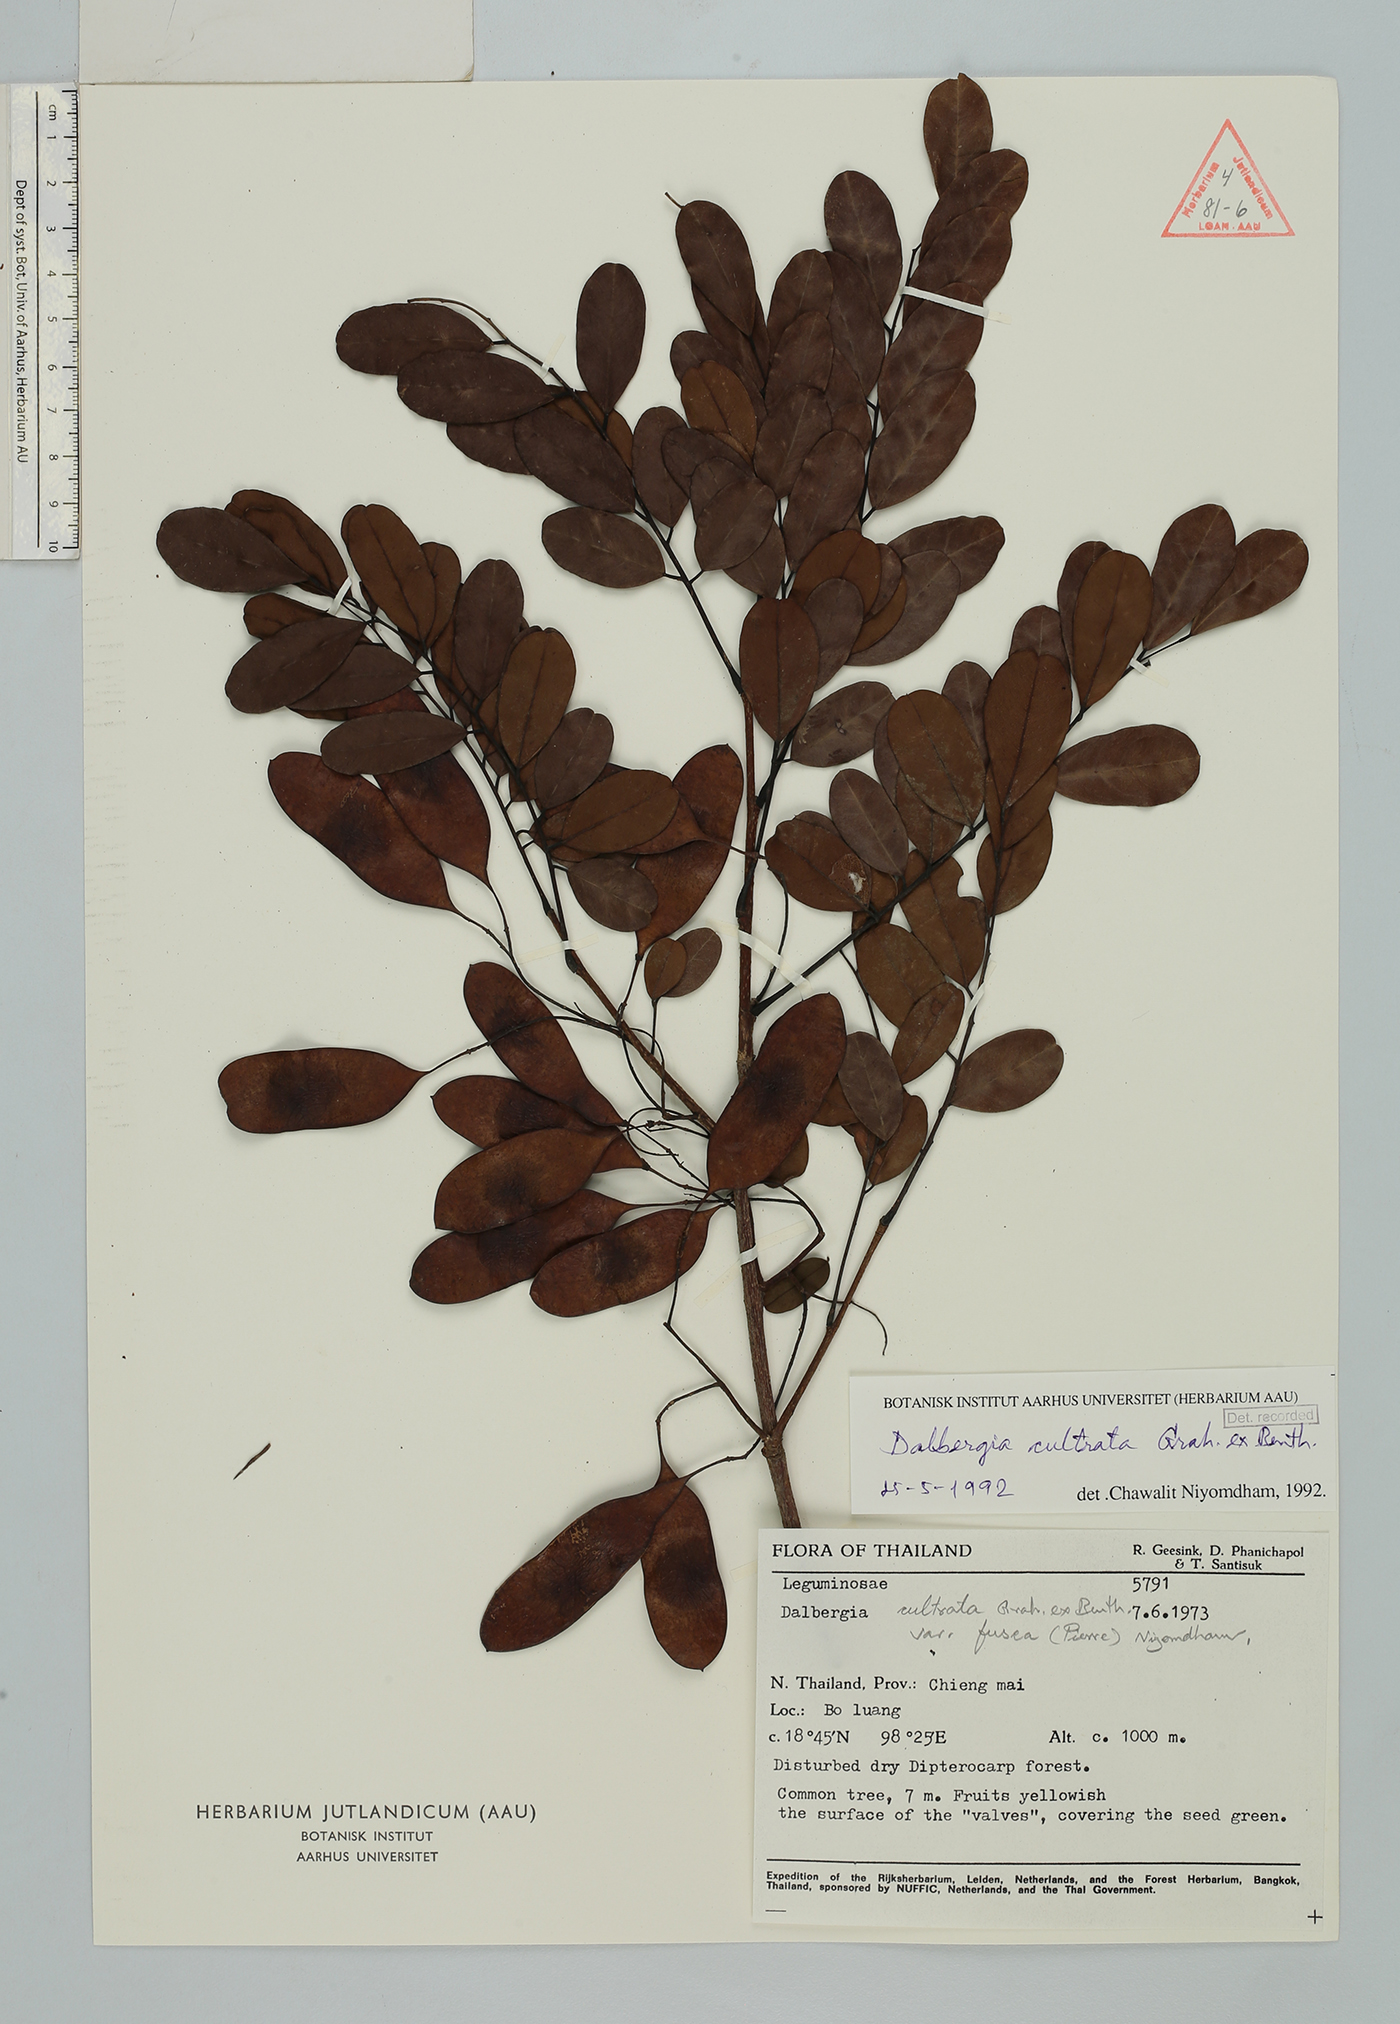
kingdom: Plantae
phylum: Tracheophyta
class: Magnoliopsida
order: Fabales
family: Fabaceae
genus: Dalbergia
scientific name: Dalbergia cultrata
